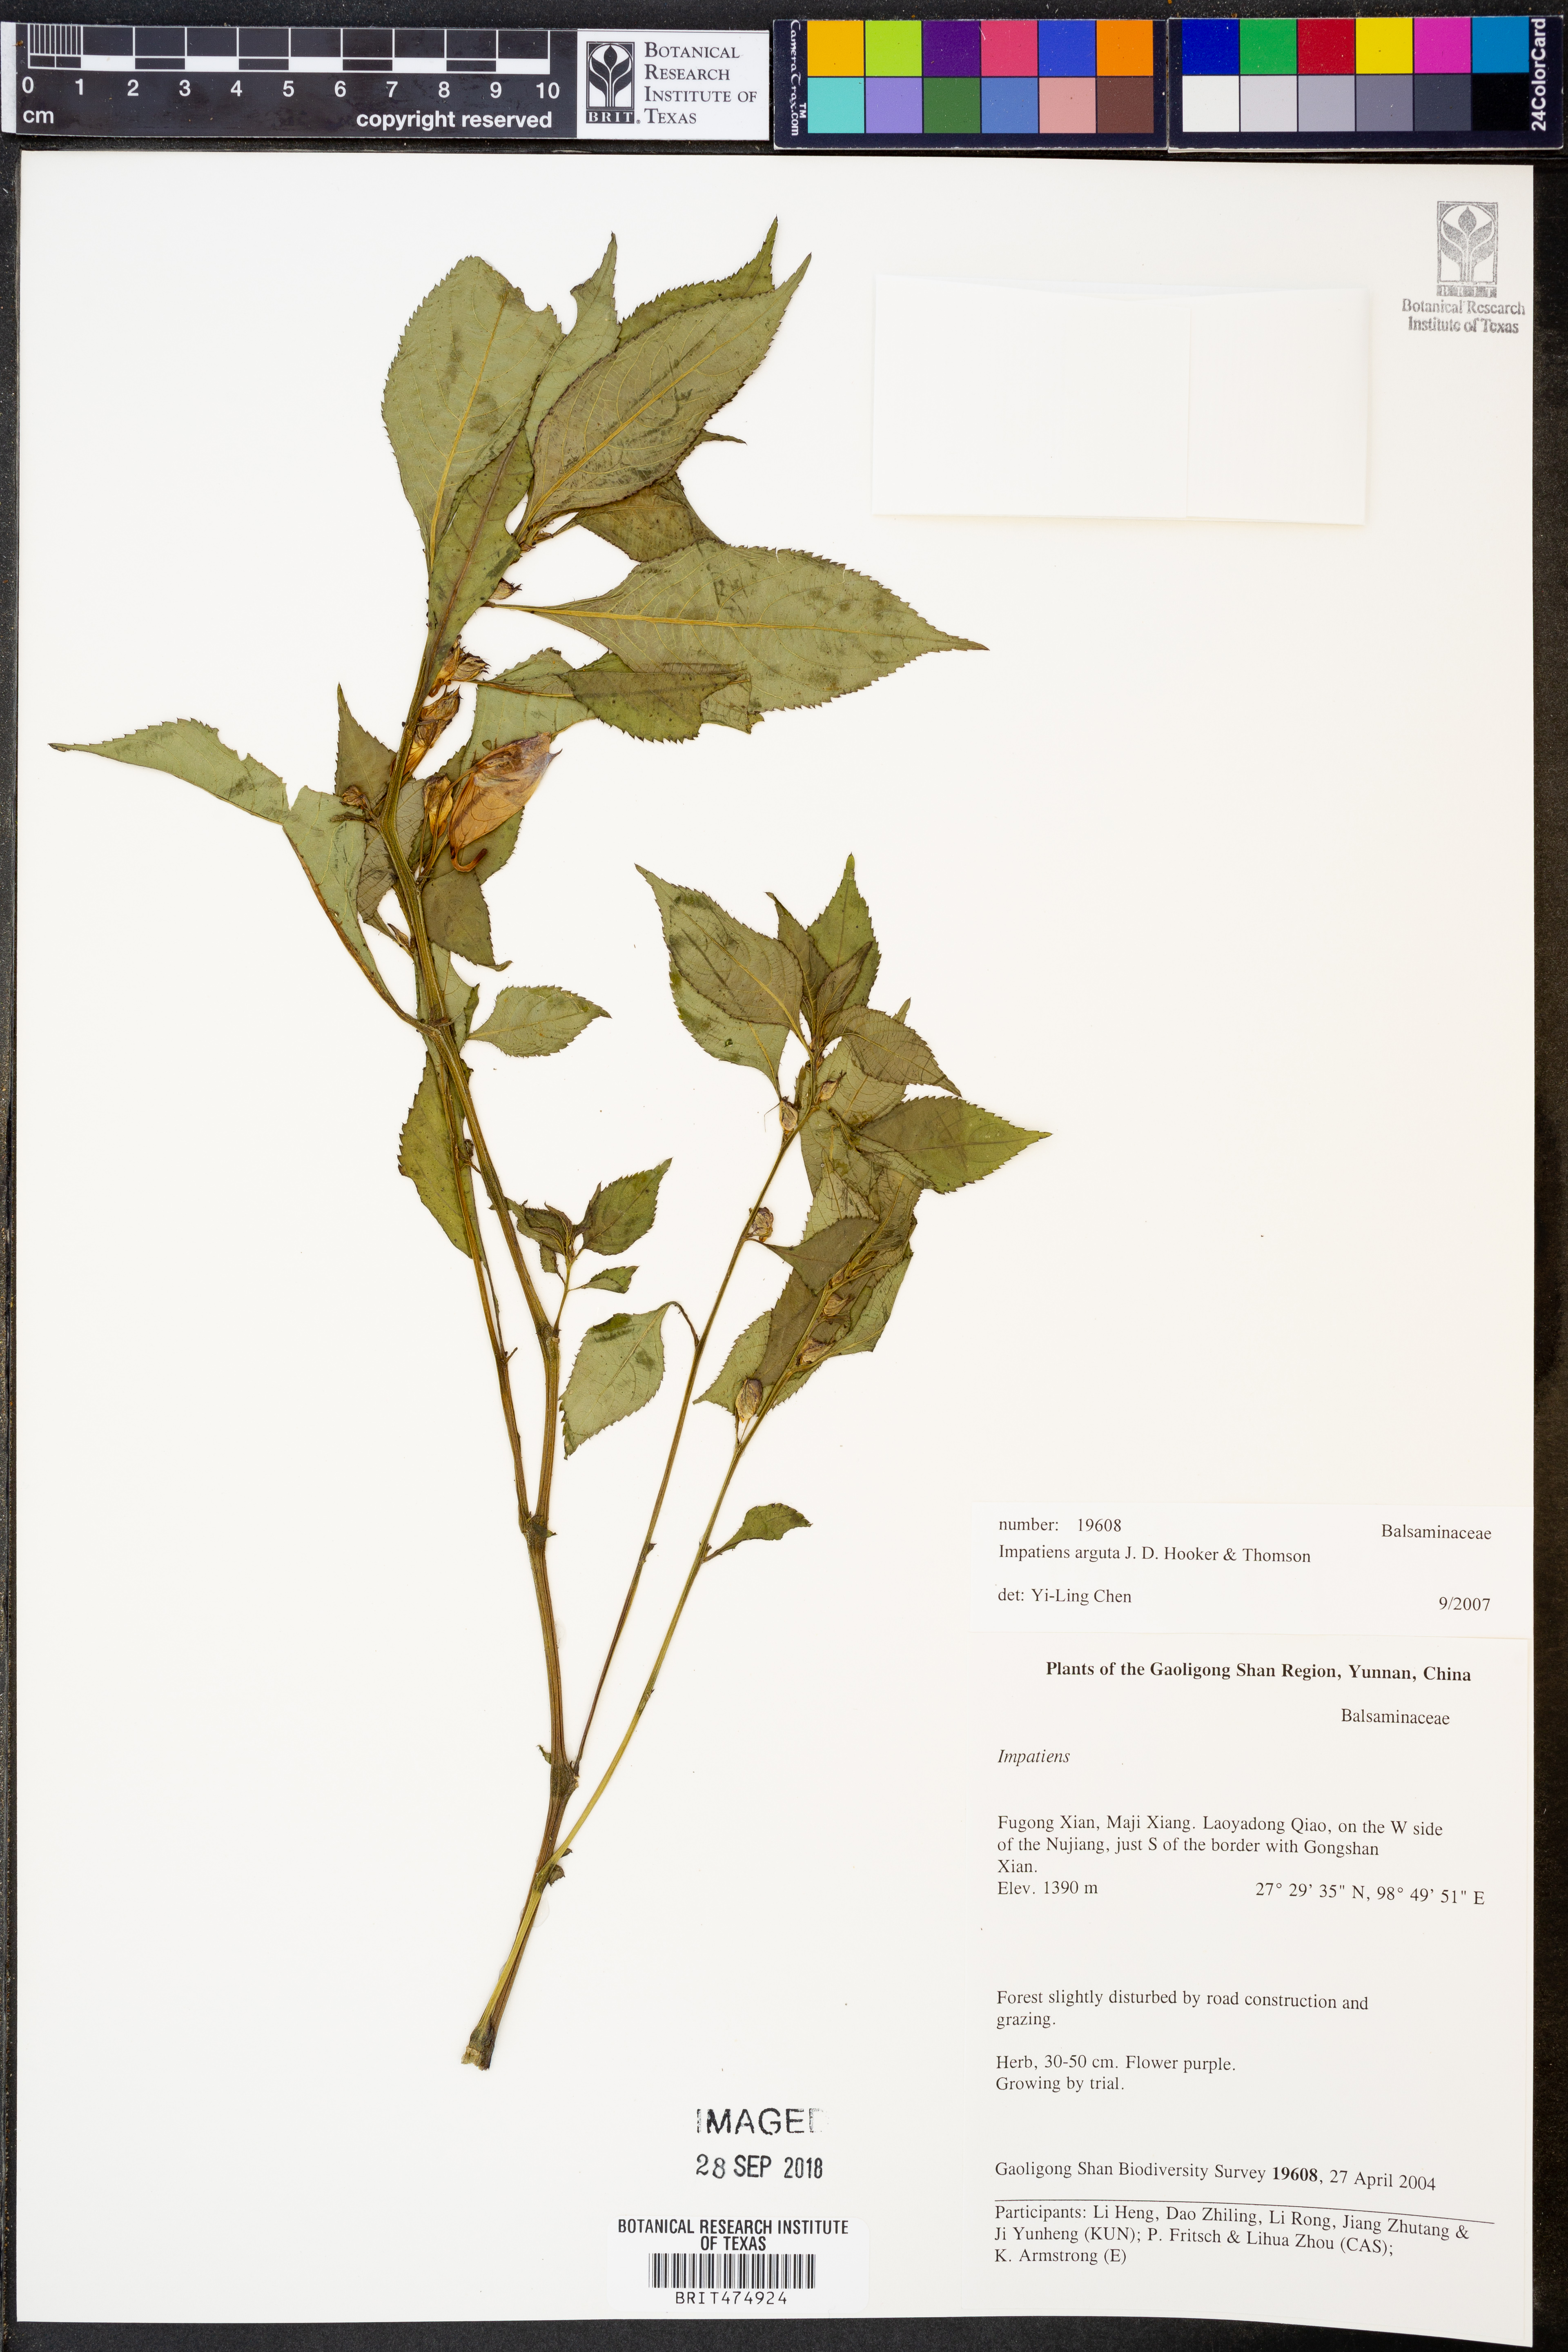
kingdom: Plantae
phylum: Tracheophyta
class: Magnoliopsida
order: Ericales
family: Balsaminaceae
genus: Impatiens
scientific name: Impatiens arguta
